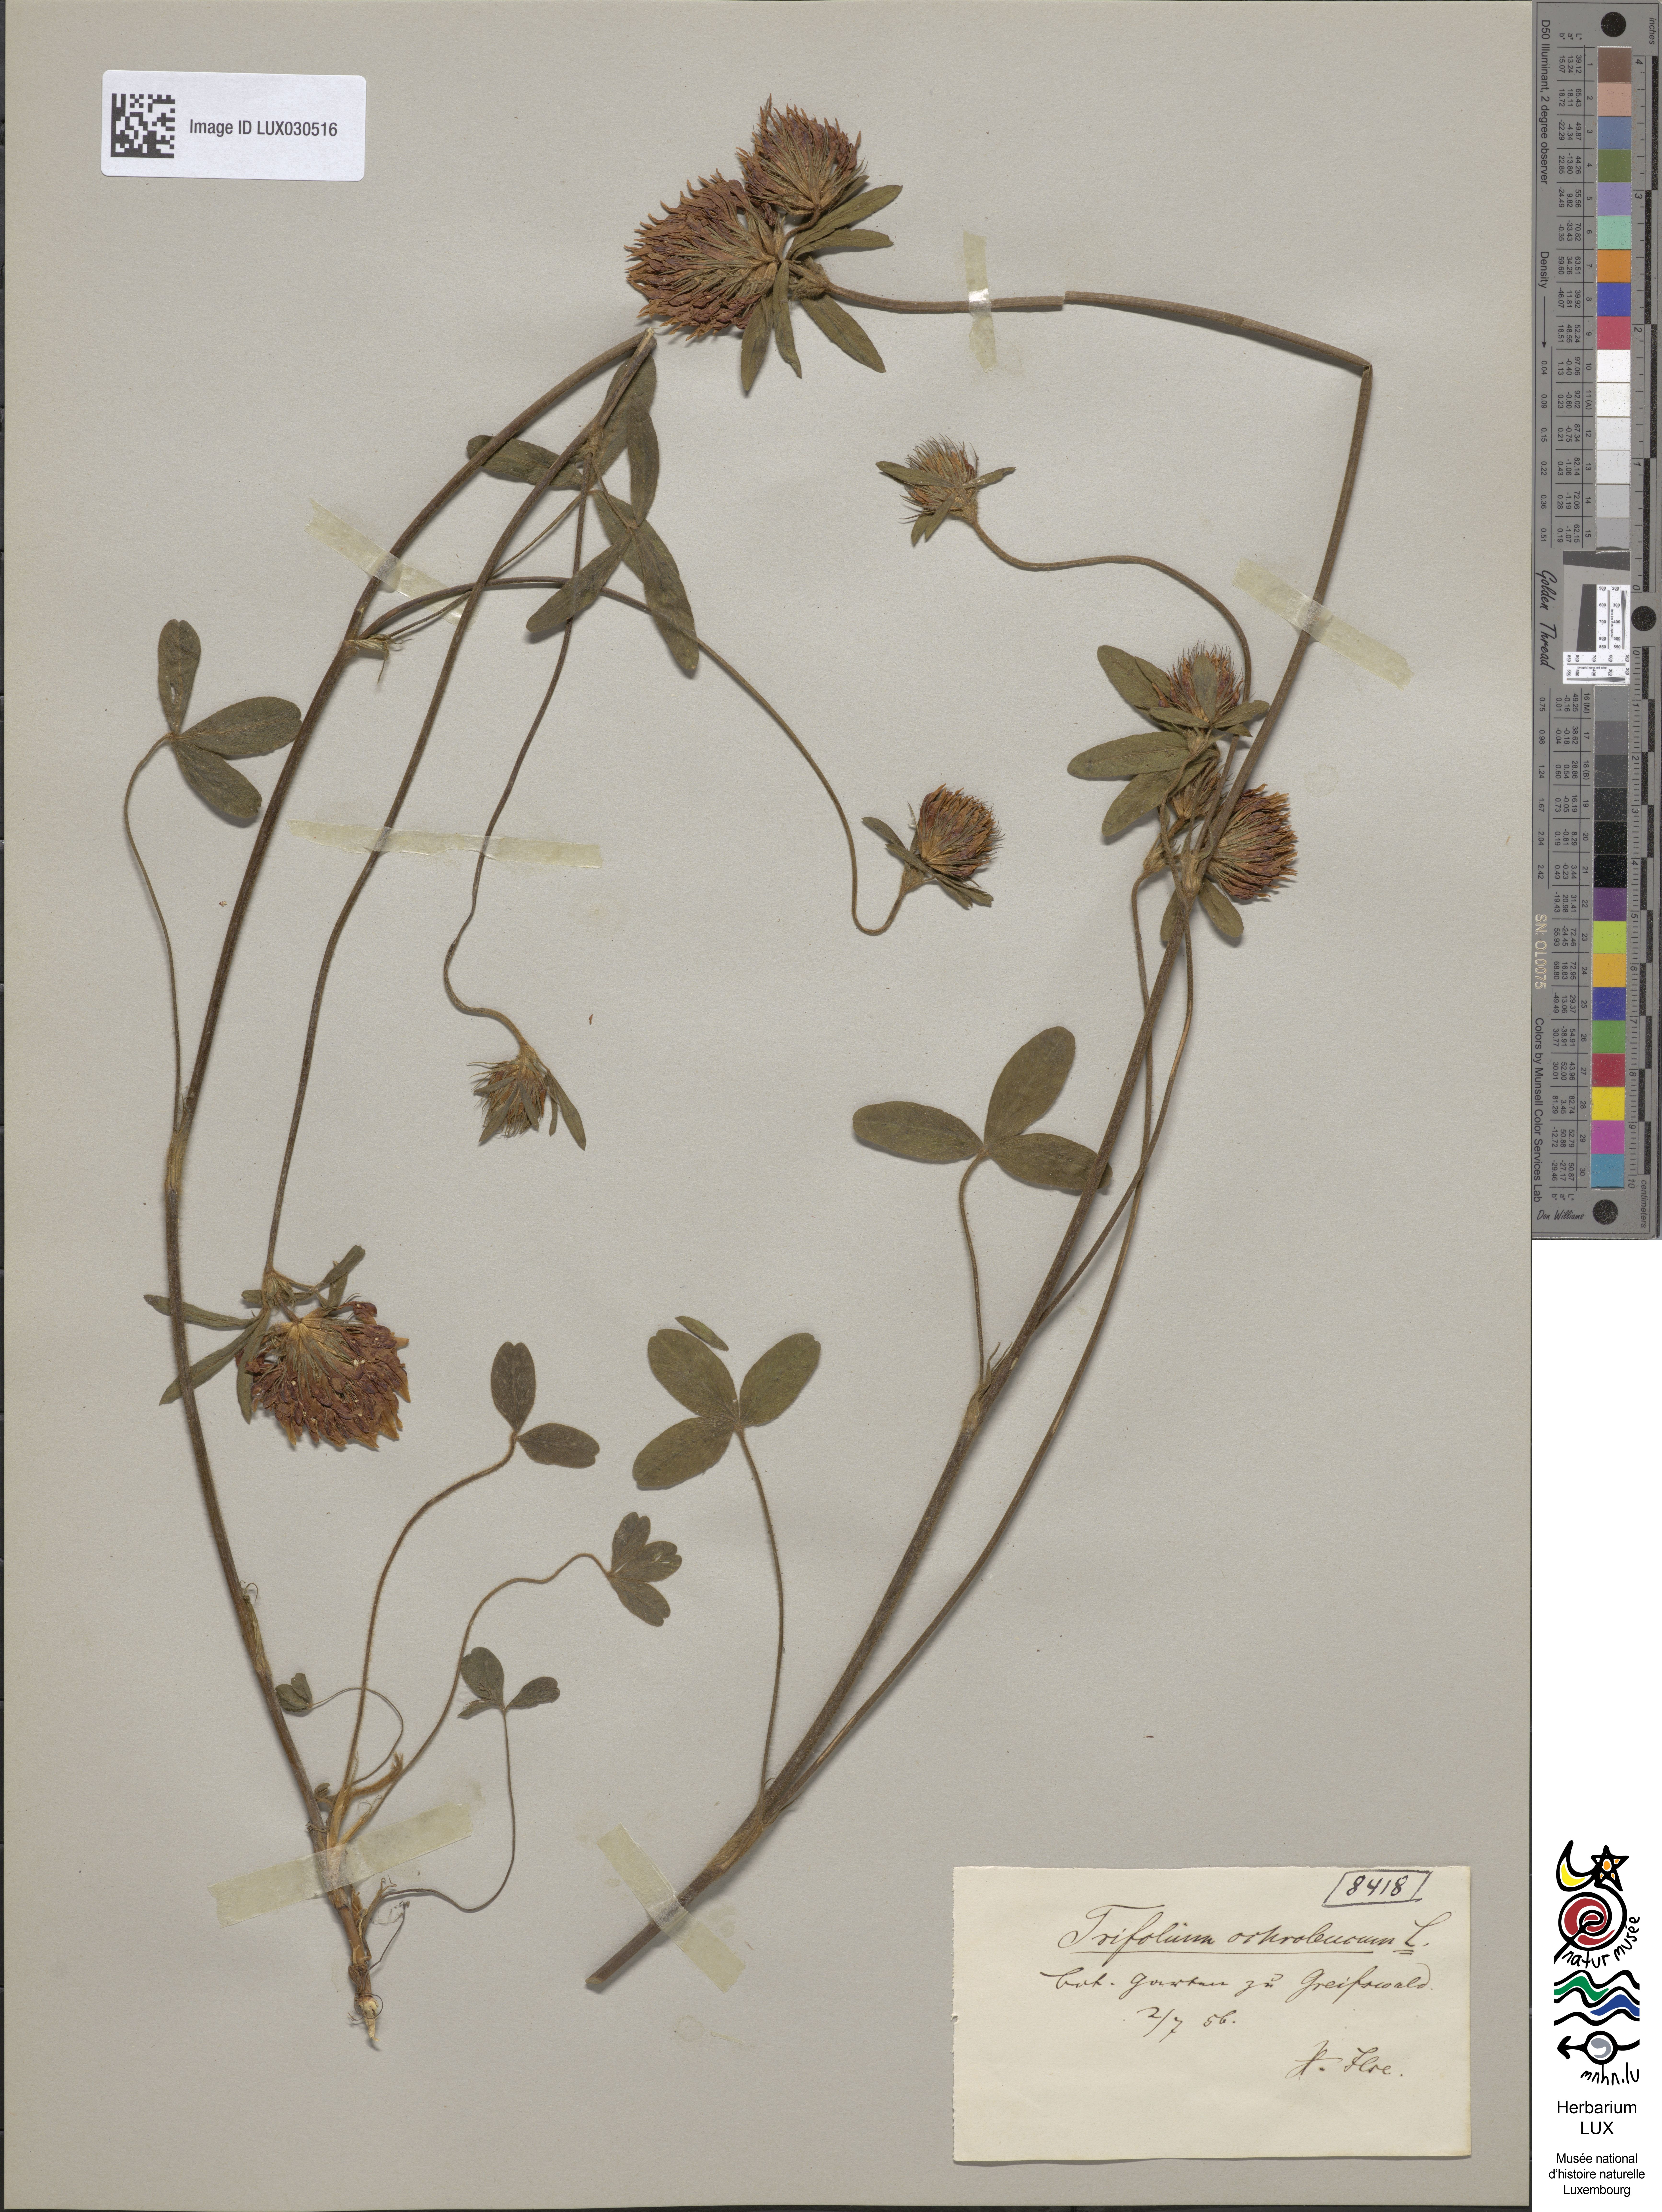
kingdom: Plantae
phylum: Tracheophyta
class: Magnoliopsida
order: Fabales
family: Fabaceae
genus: Trifolium
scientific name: Trifolium ochroleucon
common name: Sulphur clover
